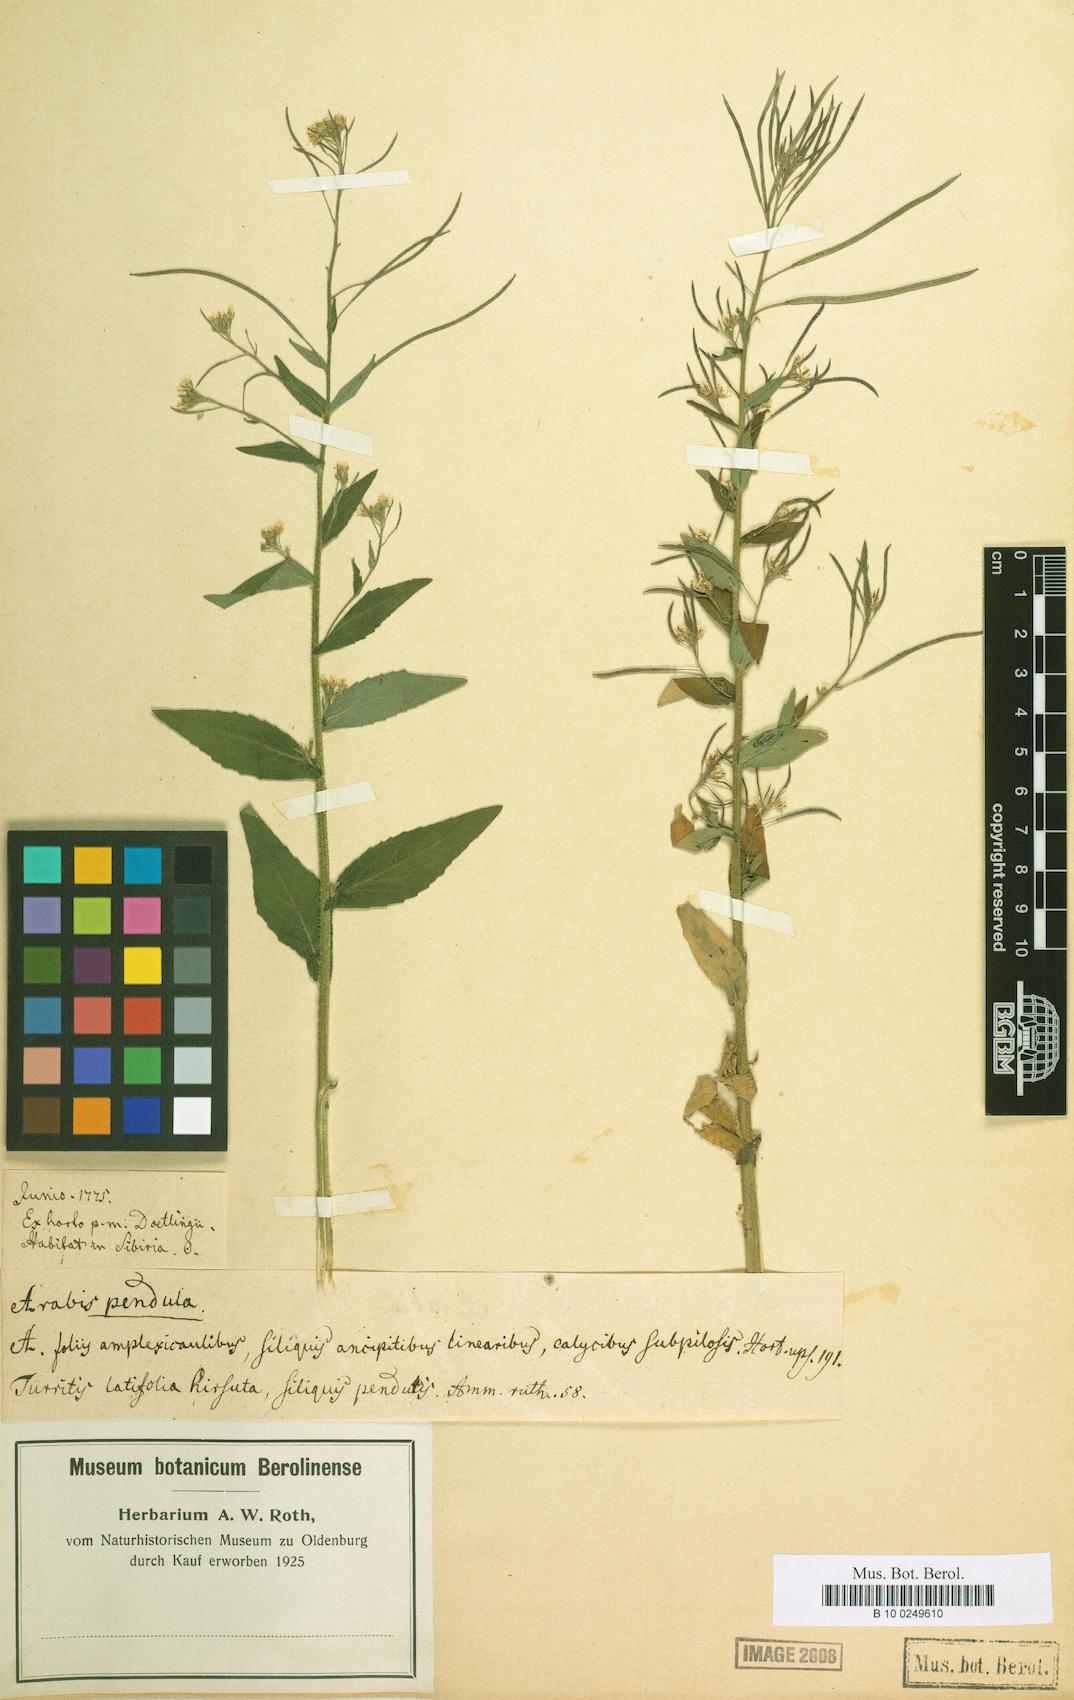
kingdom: Plantae
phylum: Tracheophyta
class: Magnoliopsida
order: Brassicales
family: Brassicaceae
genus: Catolobus
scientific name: Catolobus pendulus
